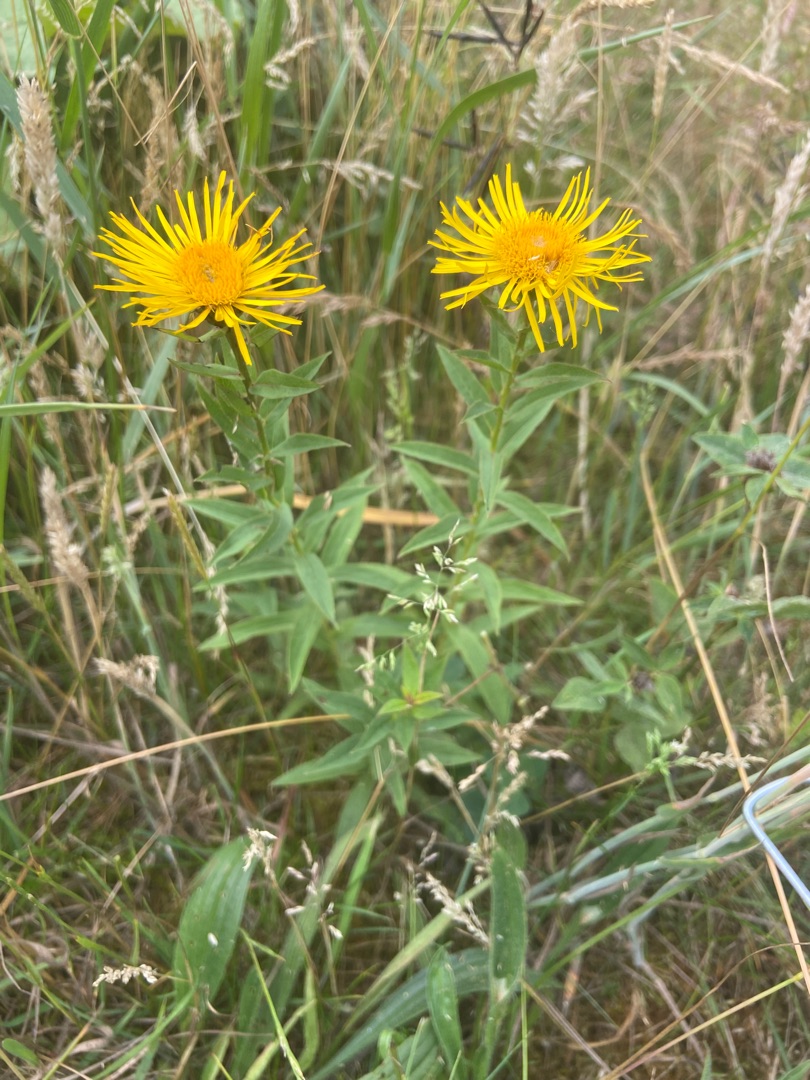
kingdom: Plantae
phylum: Tracheophyta
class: Magnoliopsida
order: Asterales
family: Asteraceae
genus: Pentanema
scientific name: Pentanema salicinum
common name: Pile-alant
